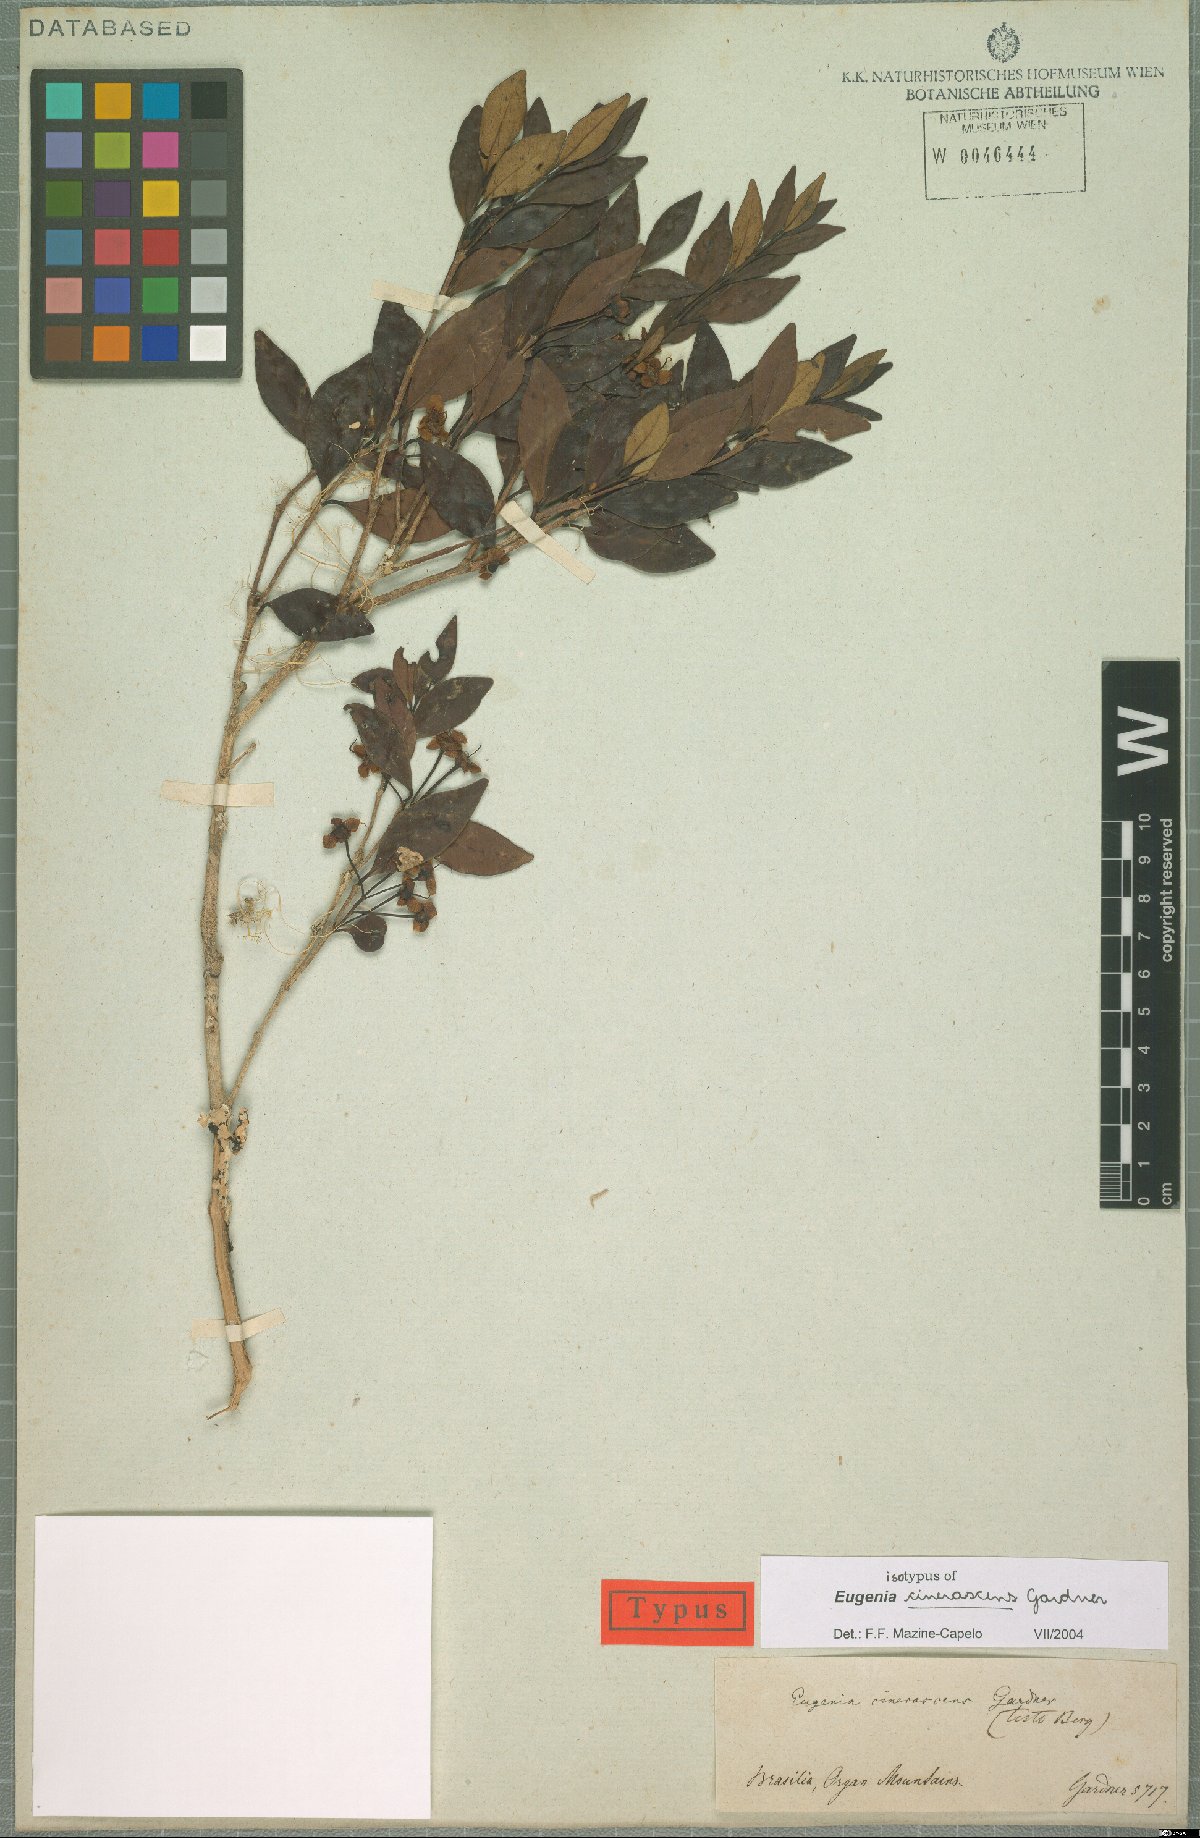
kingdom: Plantae
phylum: Tracheophyta
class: Magnoliopsida
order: Myrtales
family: Myrtaceae
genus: Eugenia
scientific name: Eugenia cinerascens
